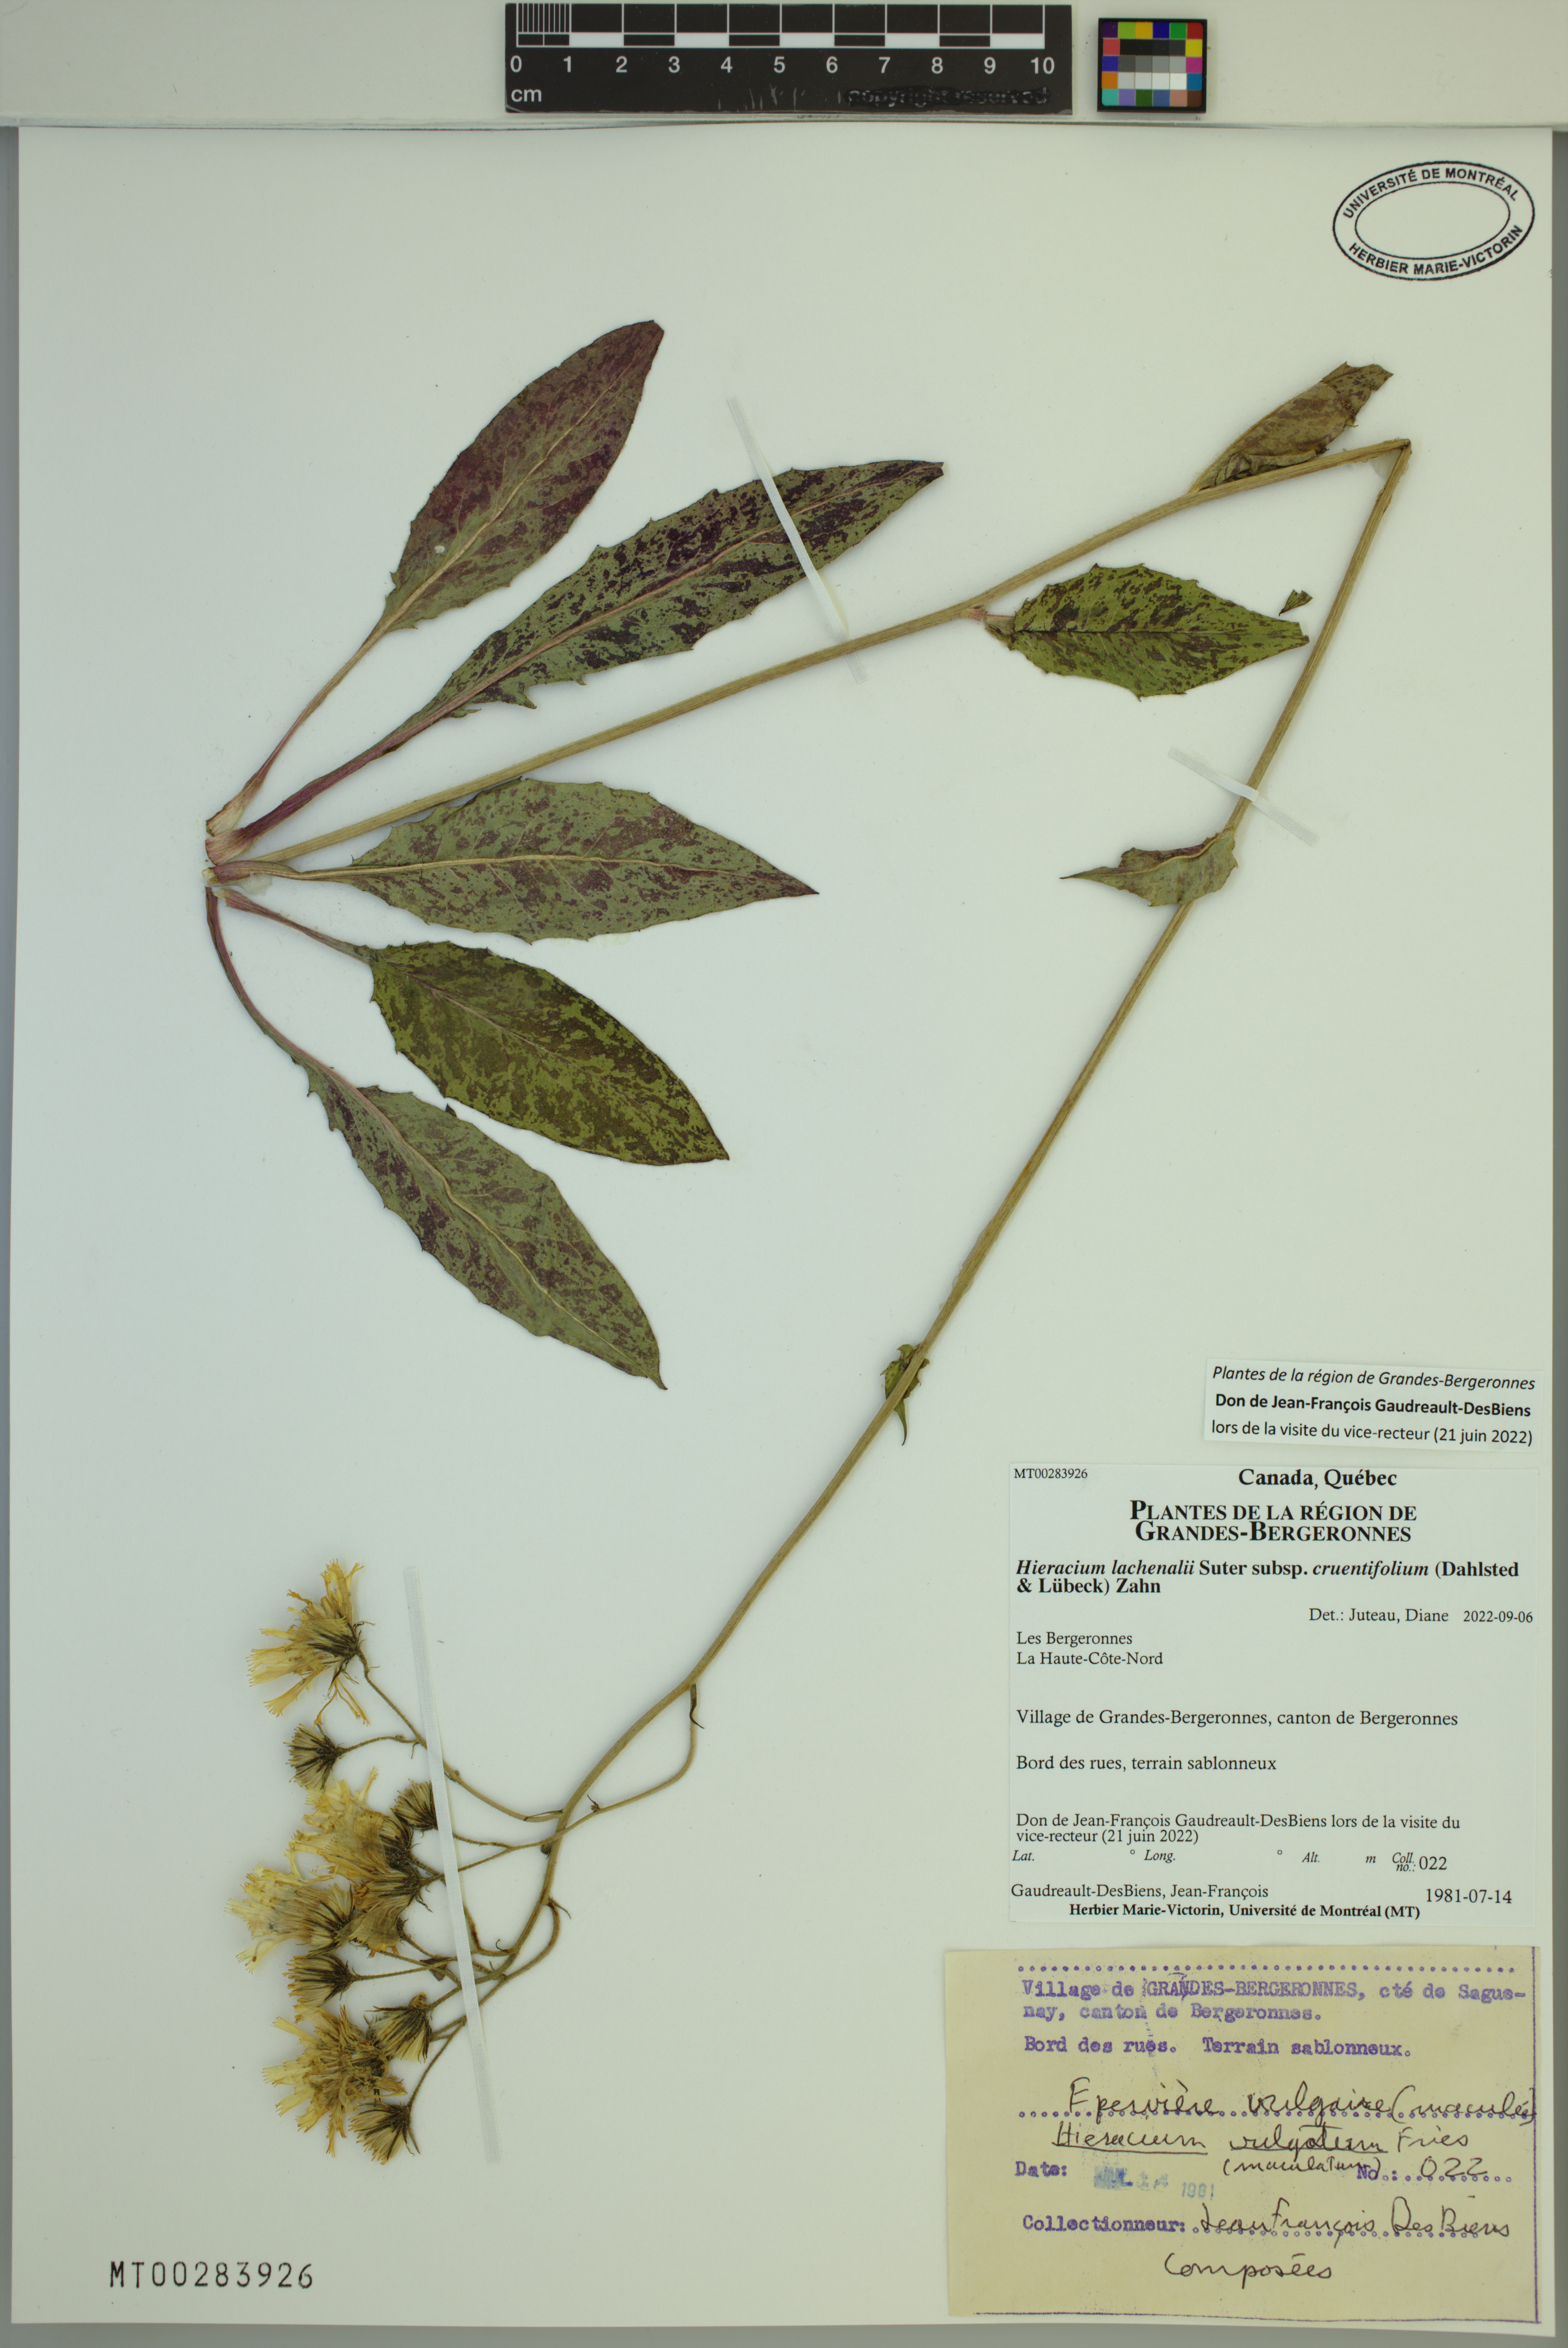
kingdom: Plantae
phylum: Tracheophyta
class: Magnoliopsida
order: Asterales
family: Asteraceae
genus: Hieracium
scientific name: Hieracium lachenalii
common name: Common hawkweed
